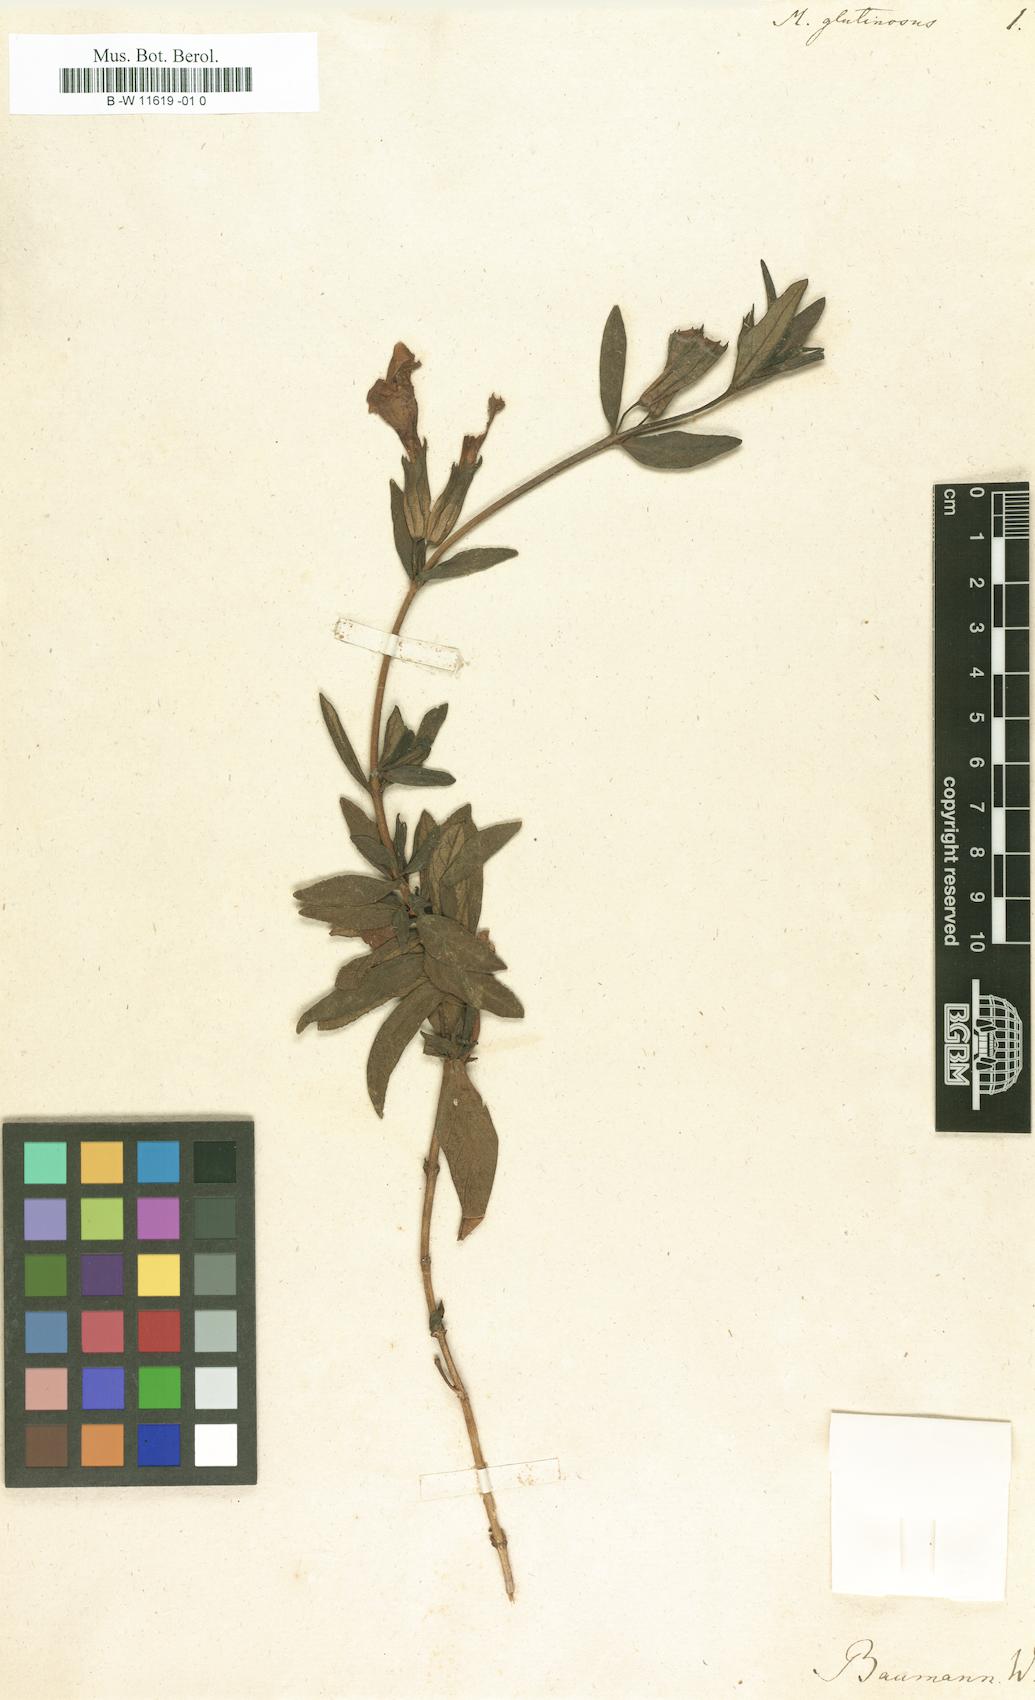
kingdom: Plantae
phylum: Tracheophyta
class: Magnoliopsida
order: Lamiales
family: Phrymaceae
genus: Diplacus
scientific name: Diplacus aurantiacus
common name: Bush monkey-flower
